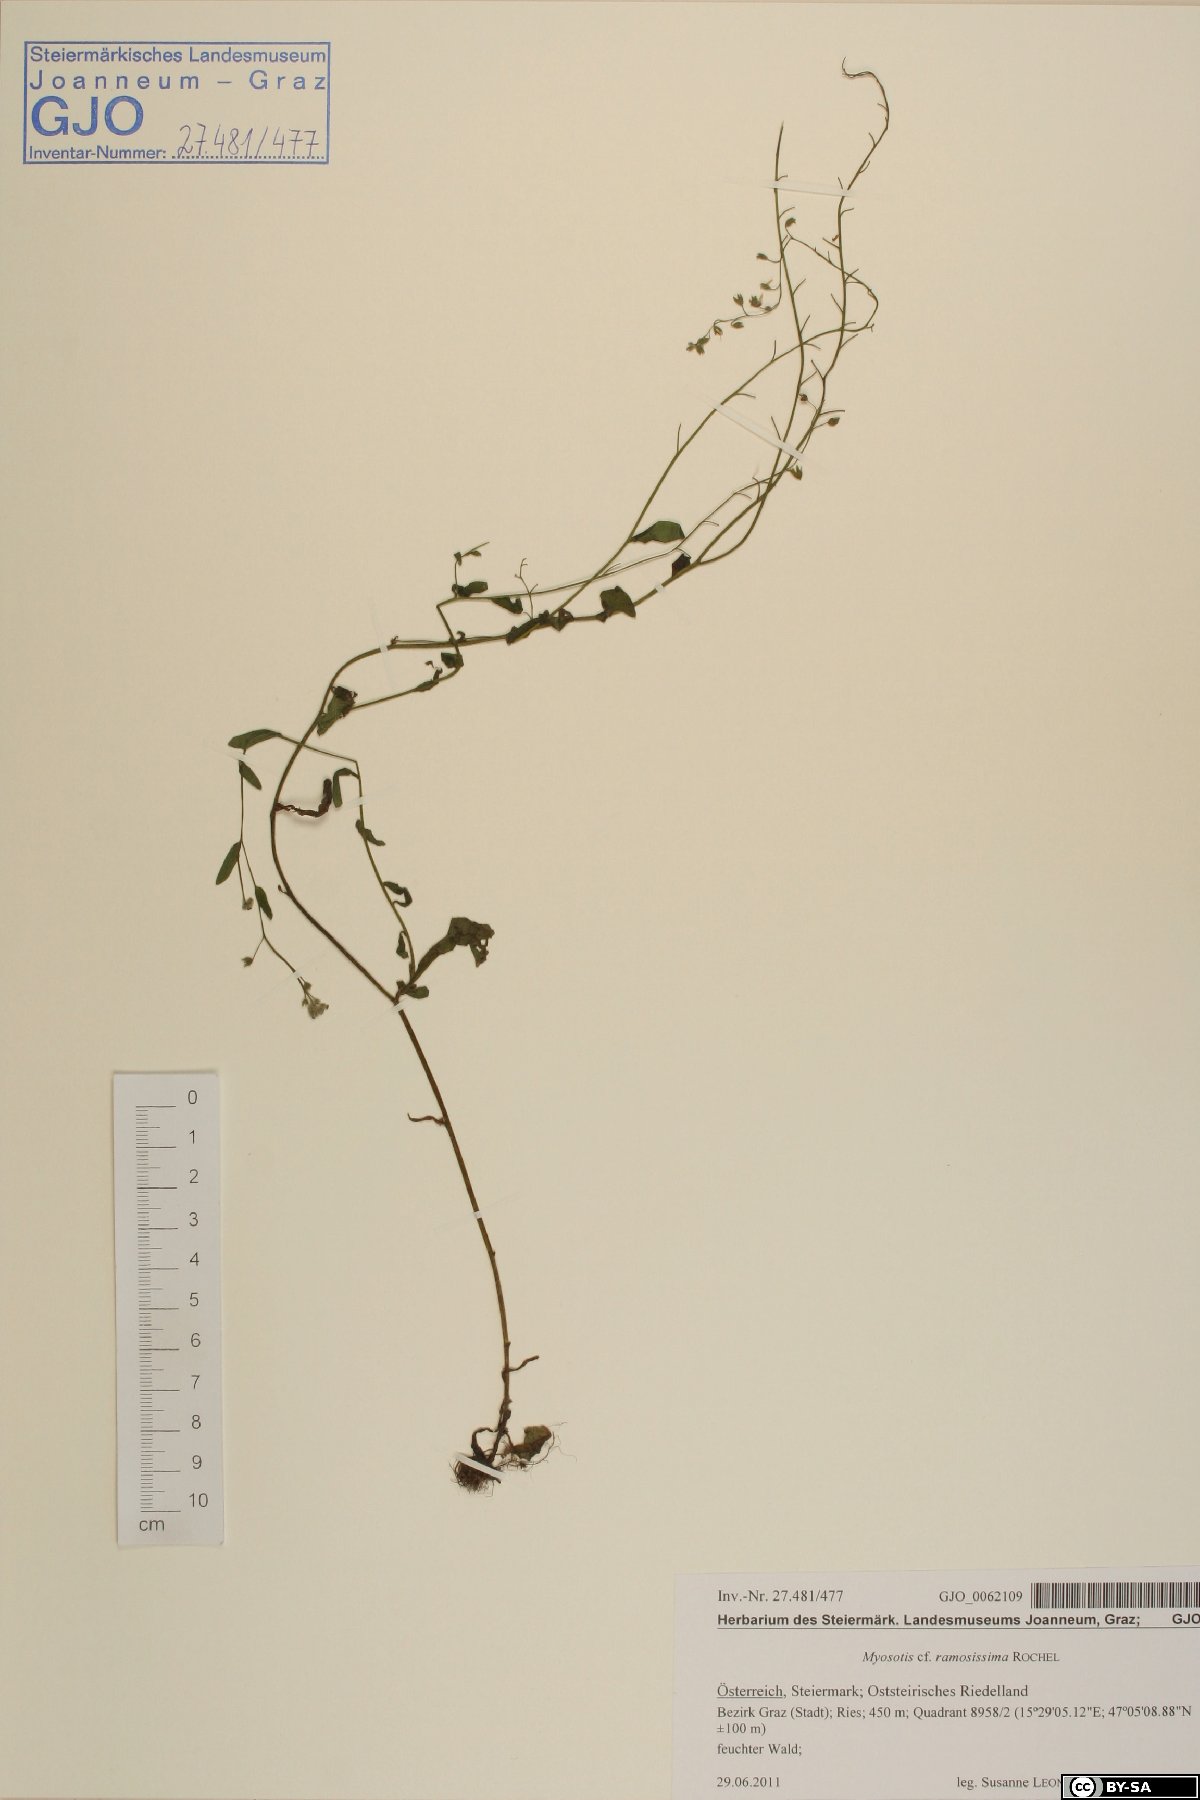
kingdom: Plantae
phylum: Tracheophyta
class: Magnoliopsida
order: Boraginales
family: Boraginaceae
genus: Myosotis
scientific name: Myosotis ramosissima
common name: Early forget-me-not
